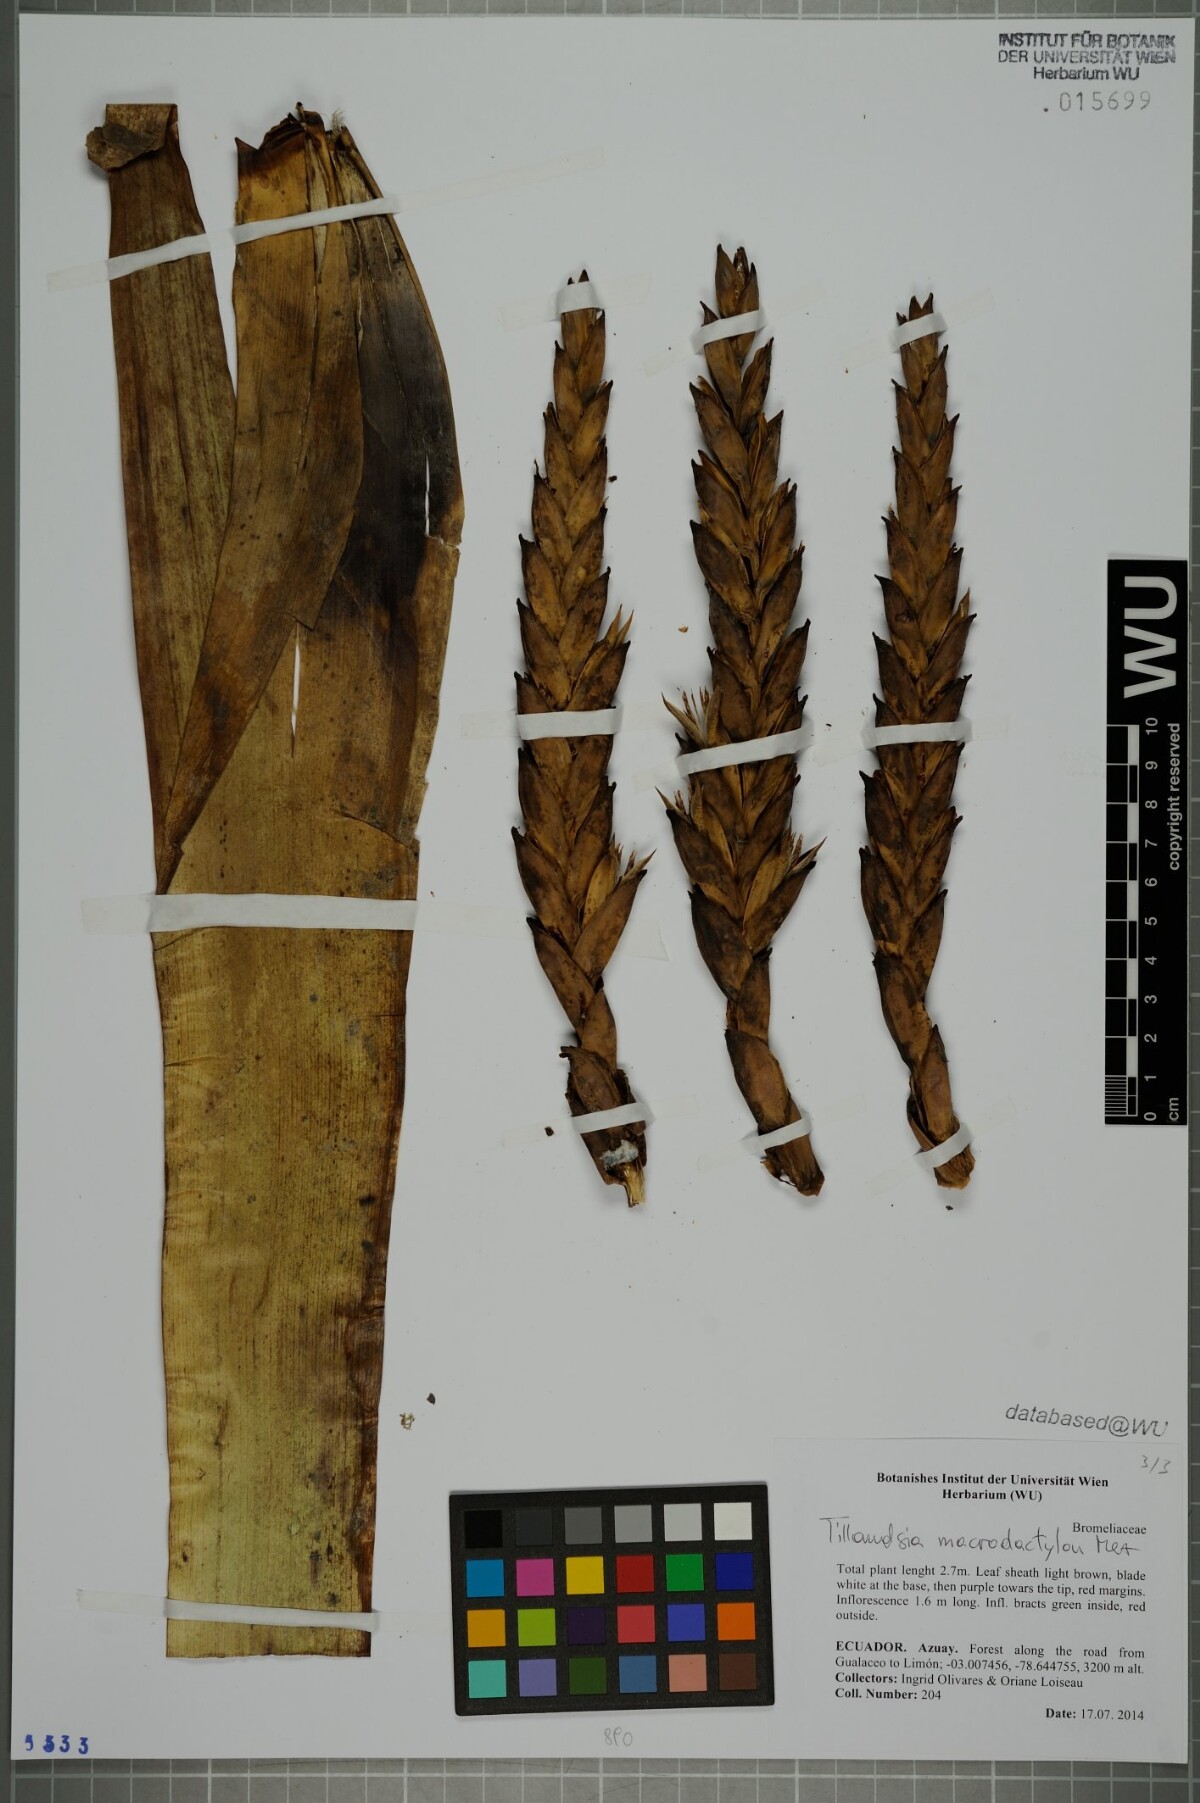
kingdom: Plantae
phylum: Tracheophyta
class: Liliopsida
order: Poales
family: Bromeliaceae
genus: Tillandsia
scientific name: Tillandsia macrodactylon
